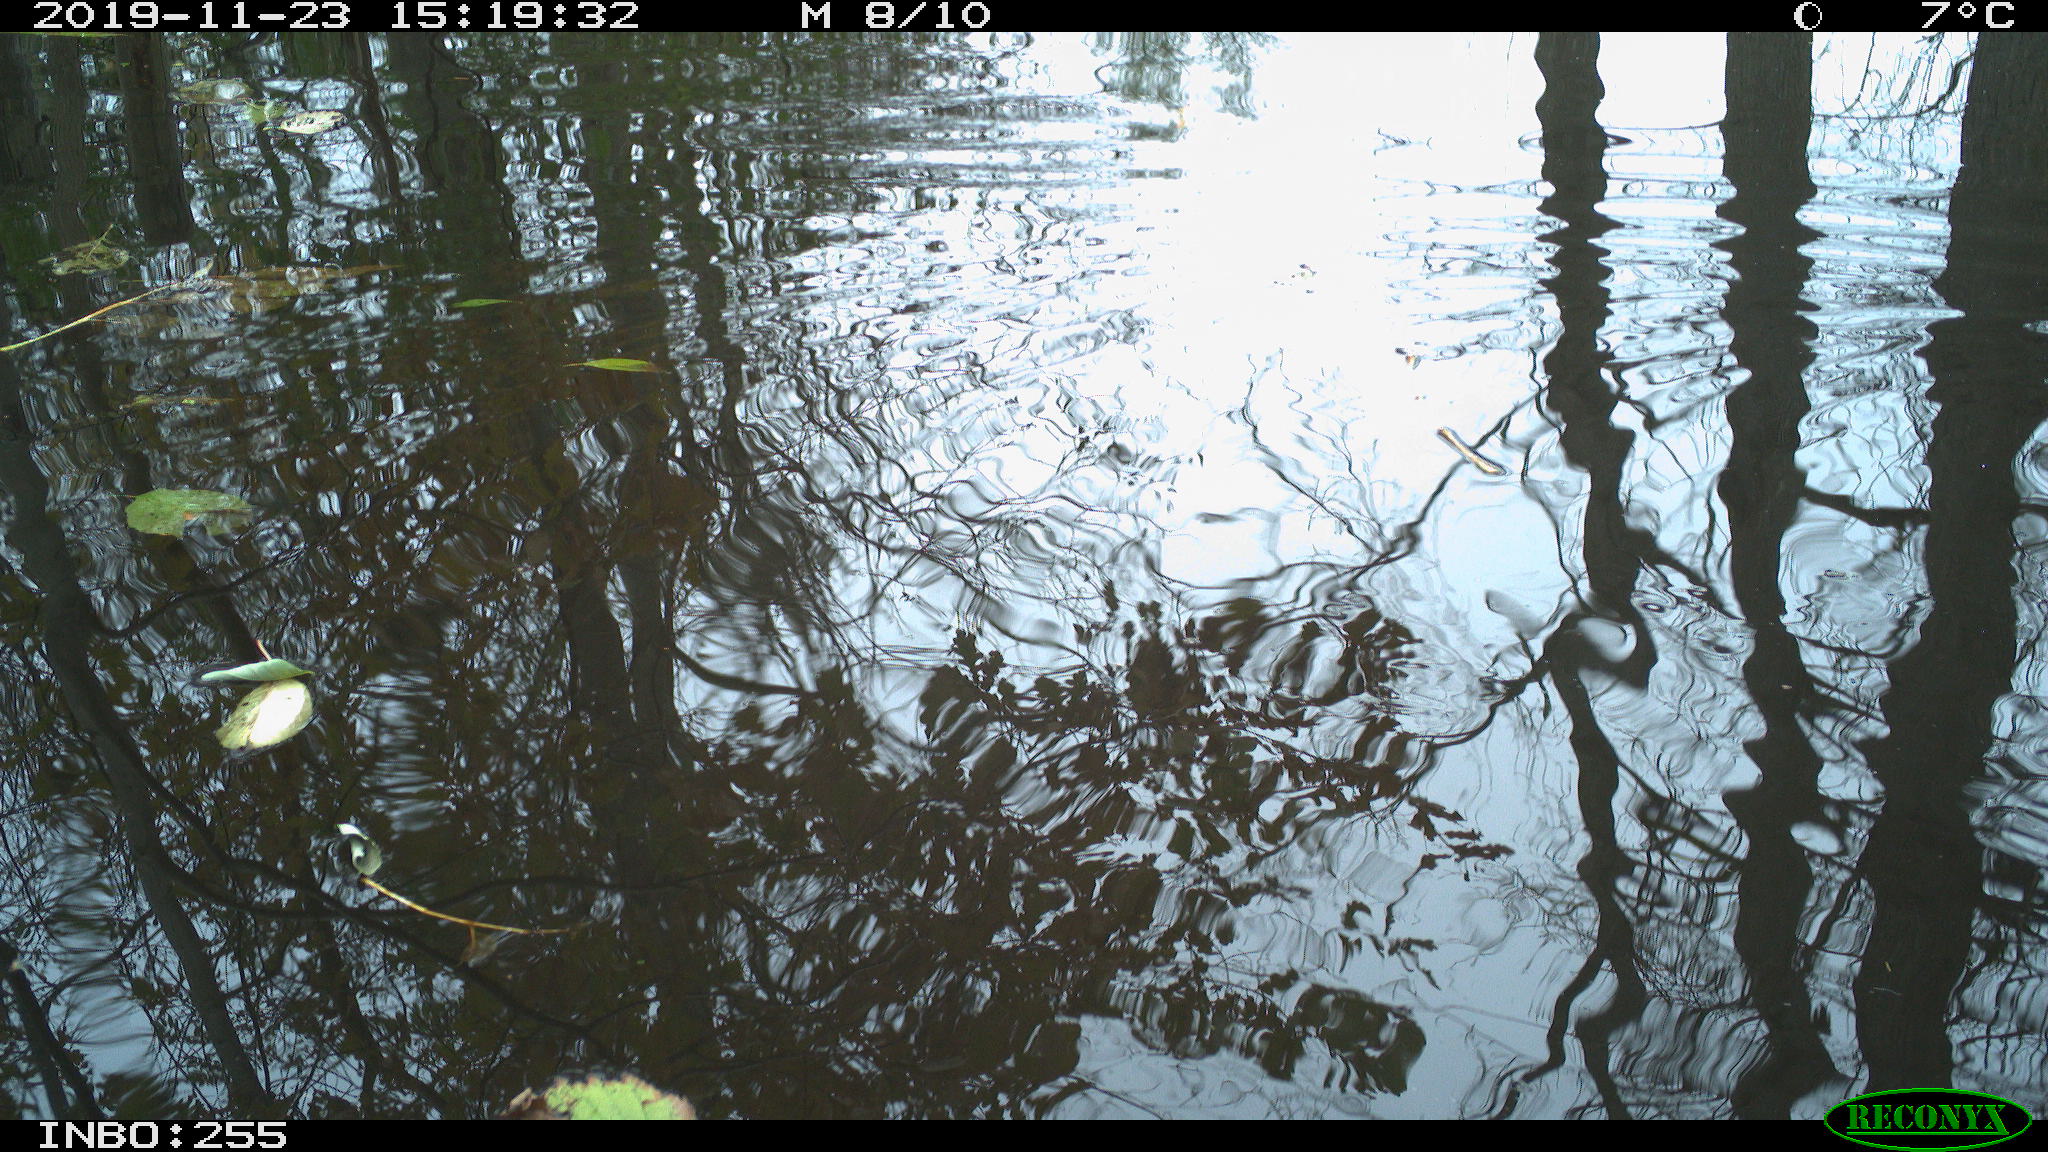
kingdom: Animalia
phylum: Chordata
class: Aves
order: Gruiformes
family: Rallidae
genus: Gallinula
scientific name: Gallinula chloropus
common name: Common moorhen
